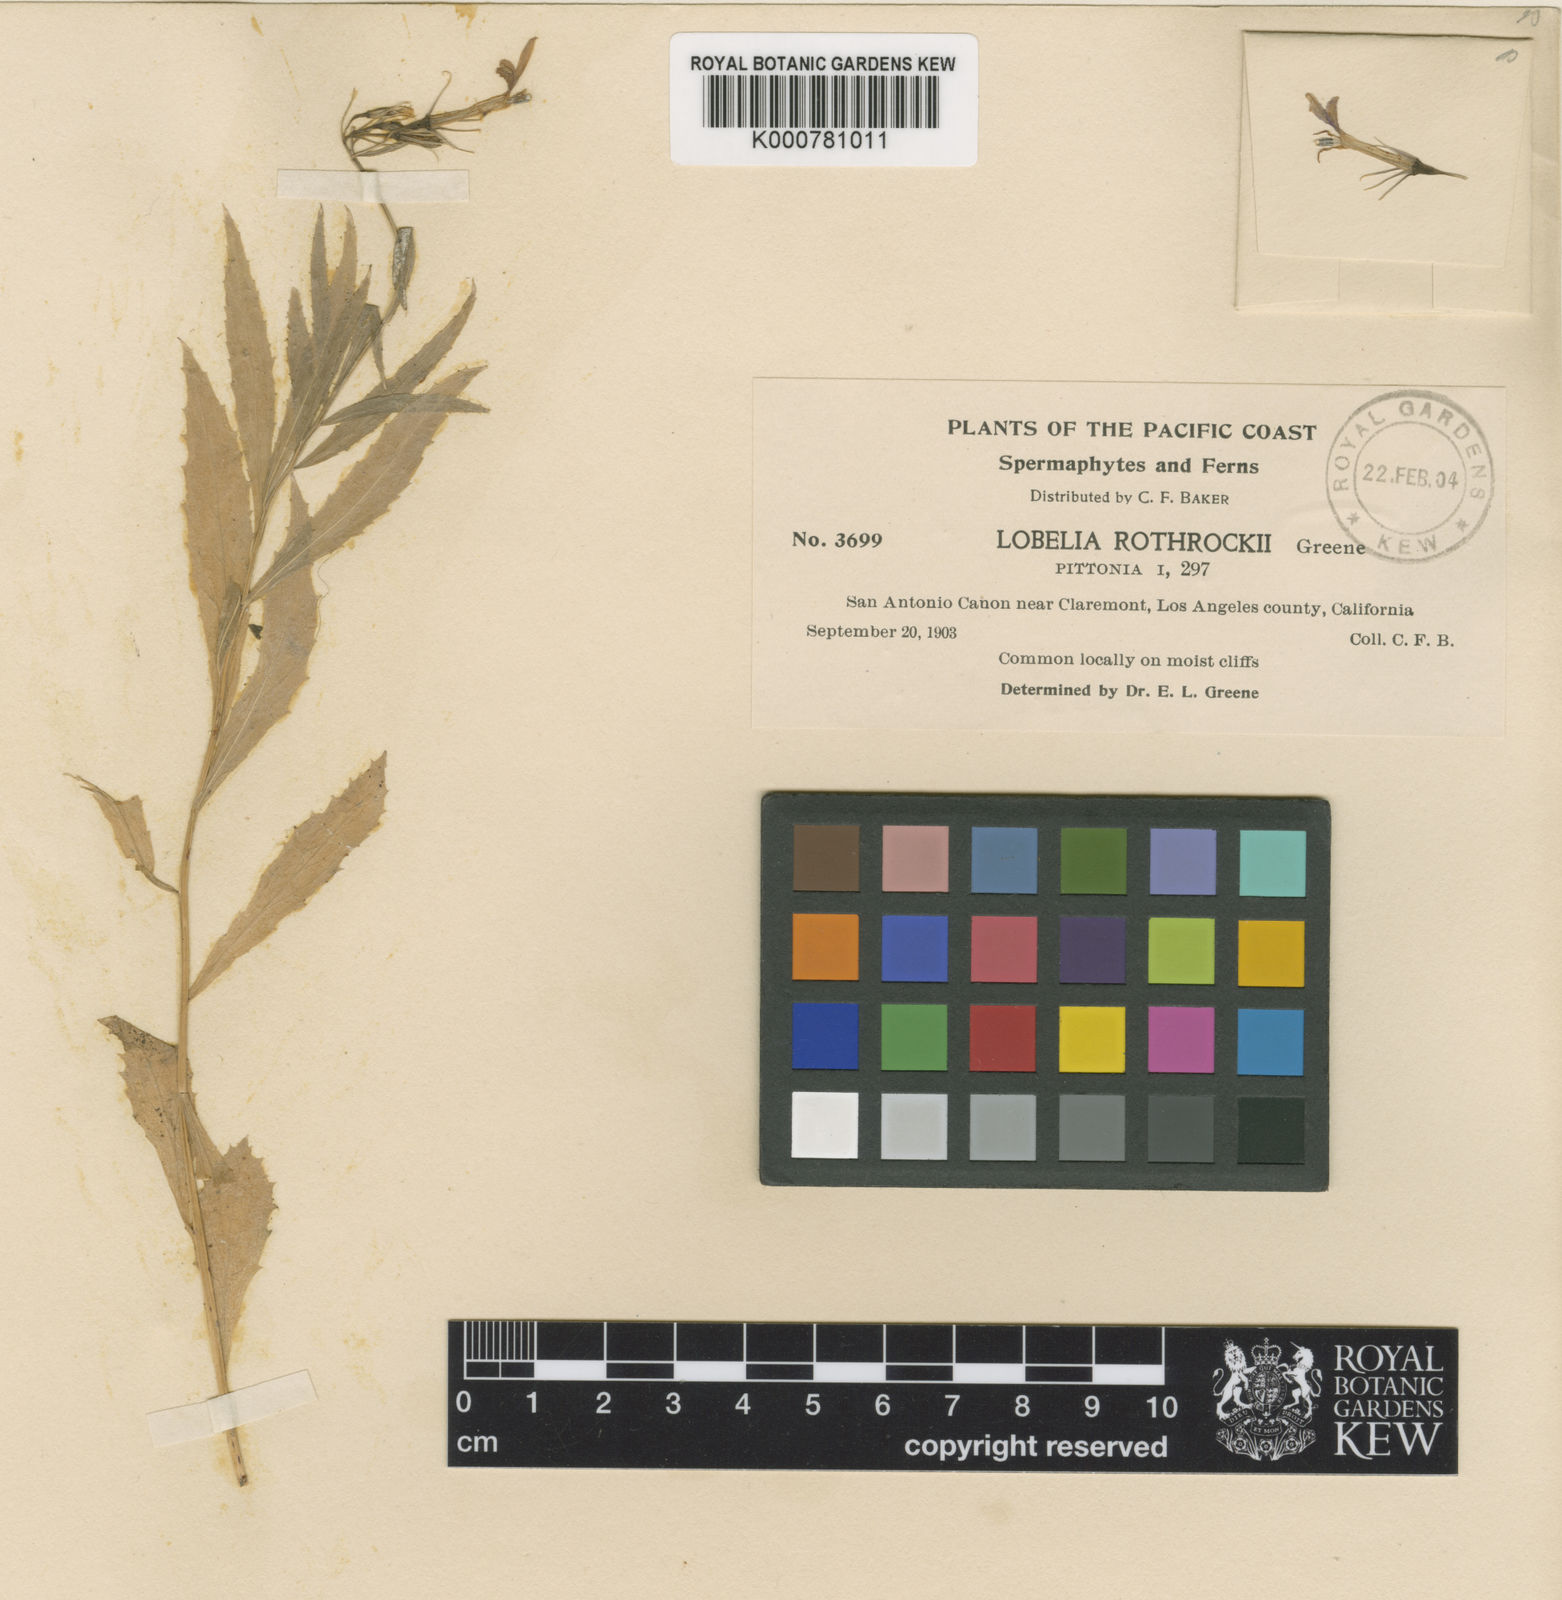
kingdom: Plantae
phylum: Tracheophyta
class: Magnoliopsida
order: Asterales
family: Campanulaceae
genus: Porterella
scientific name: Porterella
